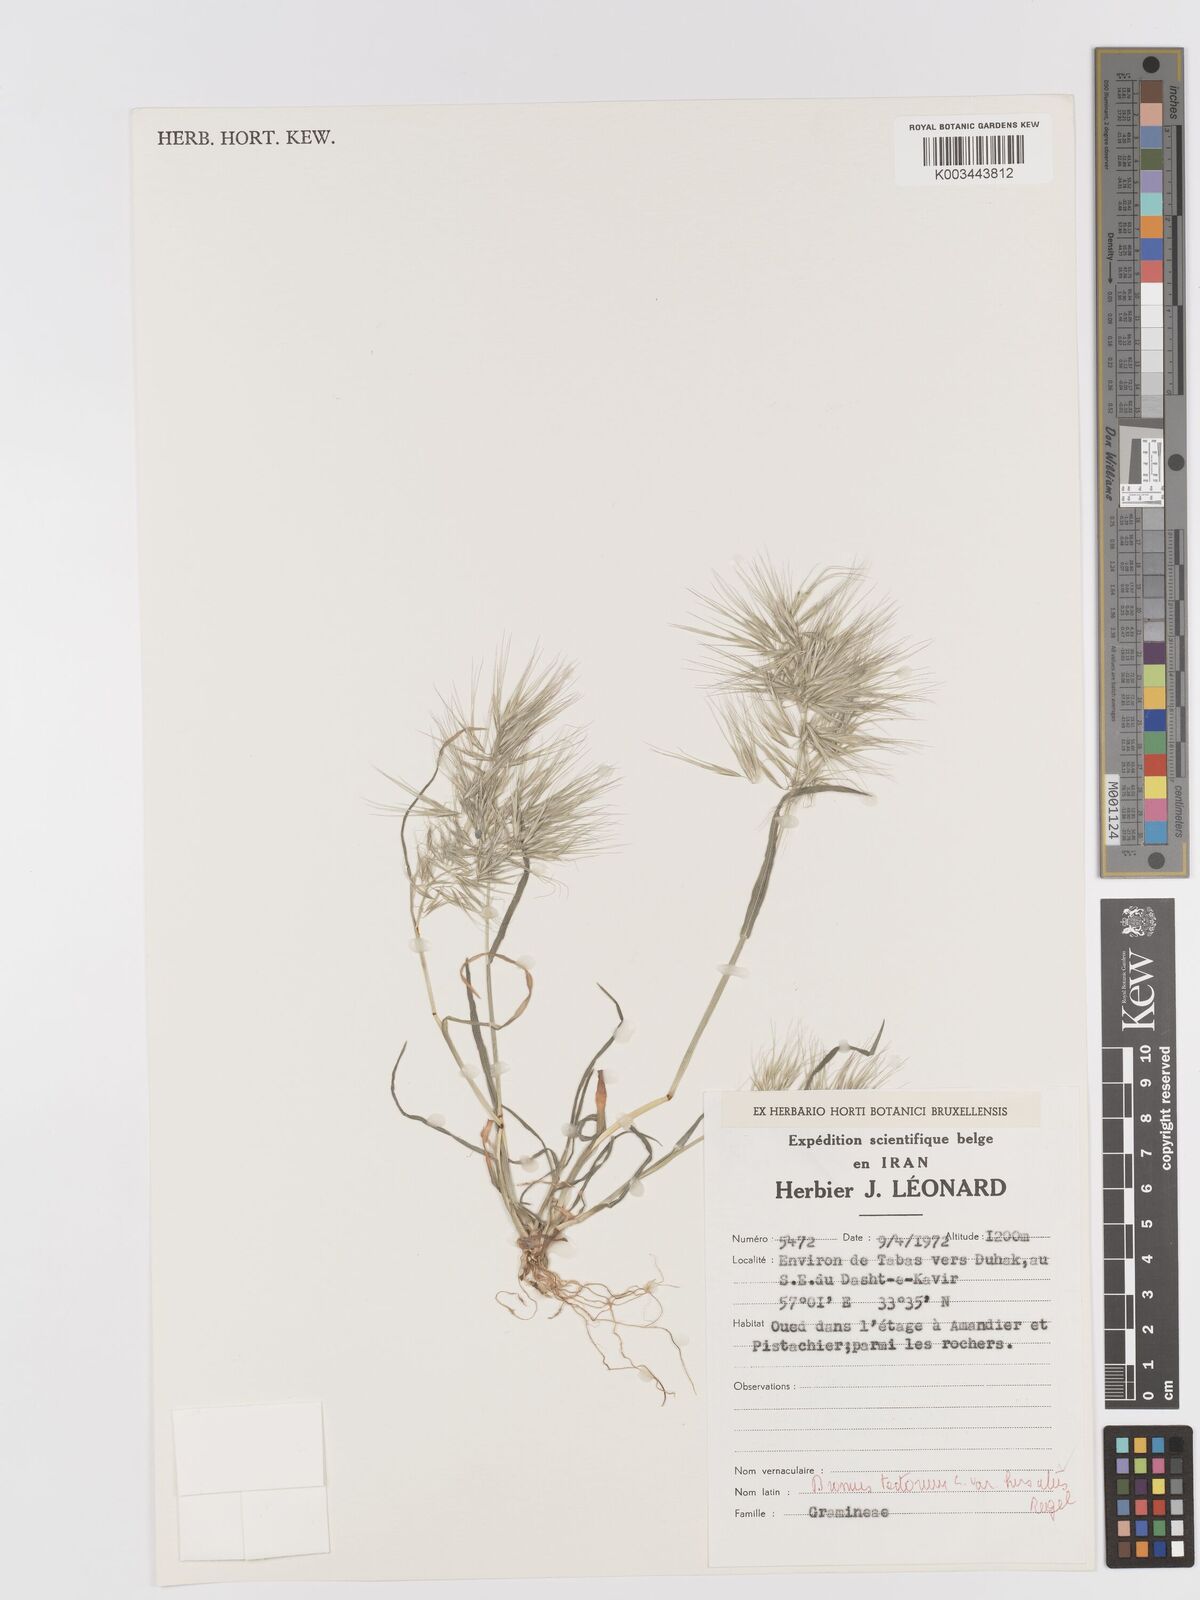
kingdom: Plantae
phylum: Tracheophyta
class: Liliopsida
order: Poales
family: Poaceae
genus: Bromus
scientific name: Bromus tectorum
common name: Cheatgrass
